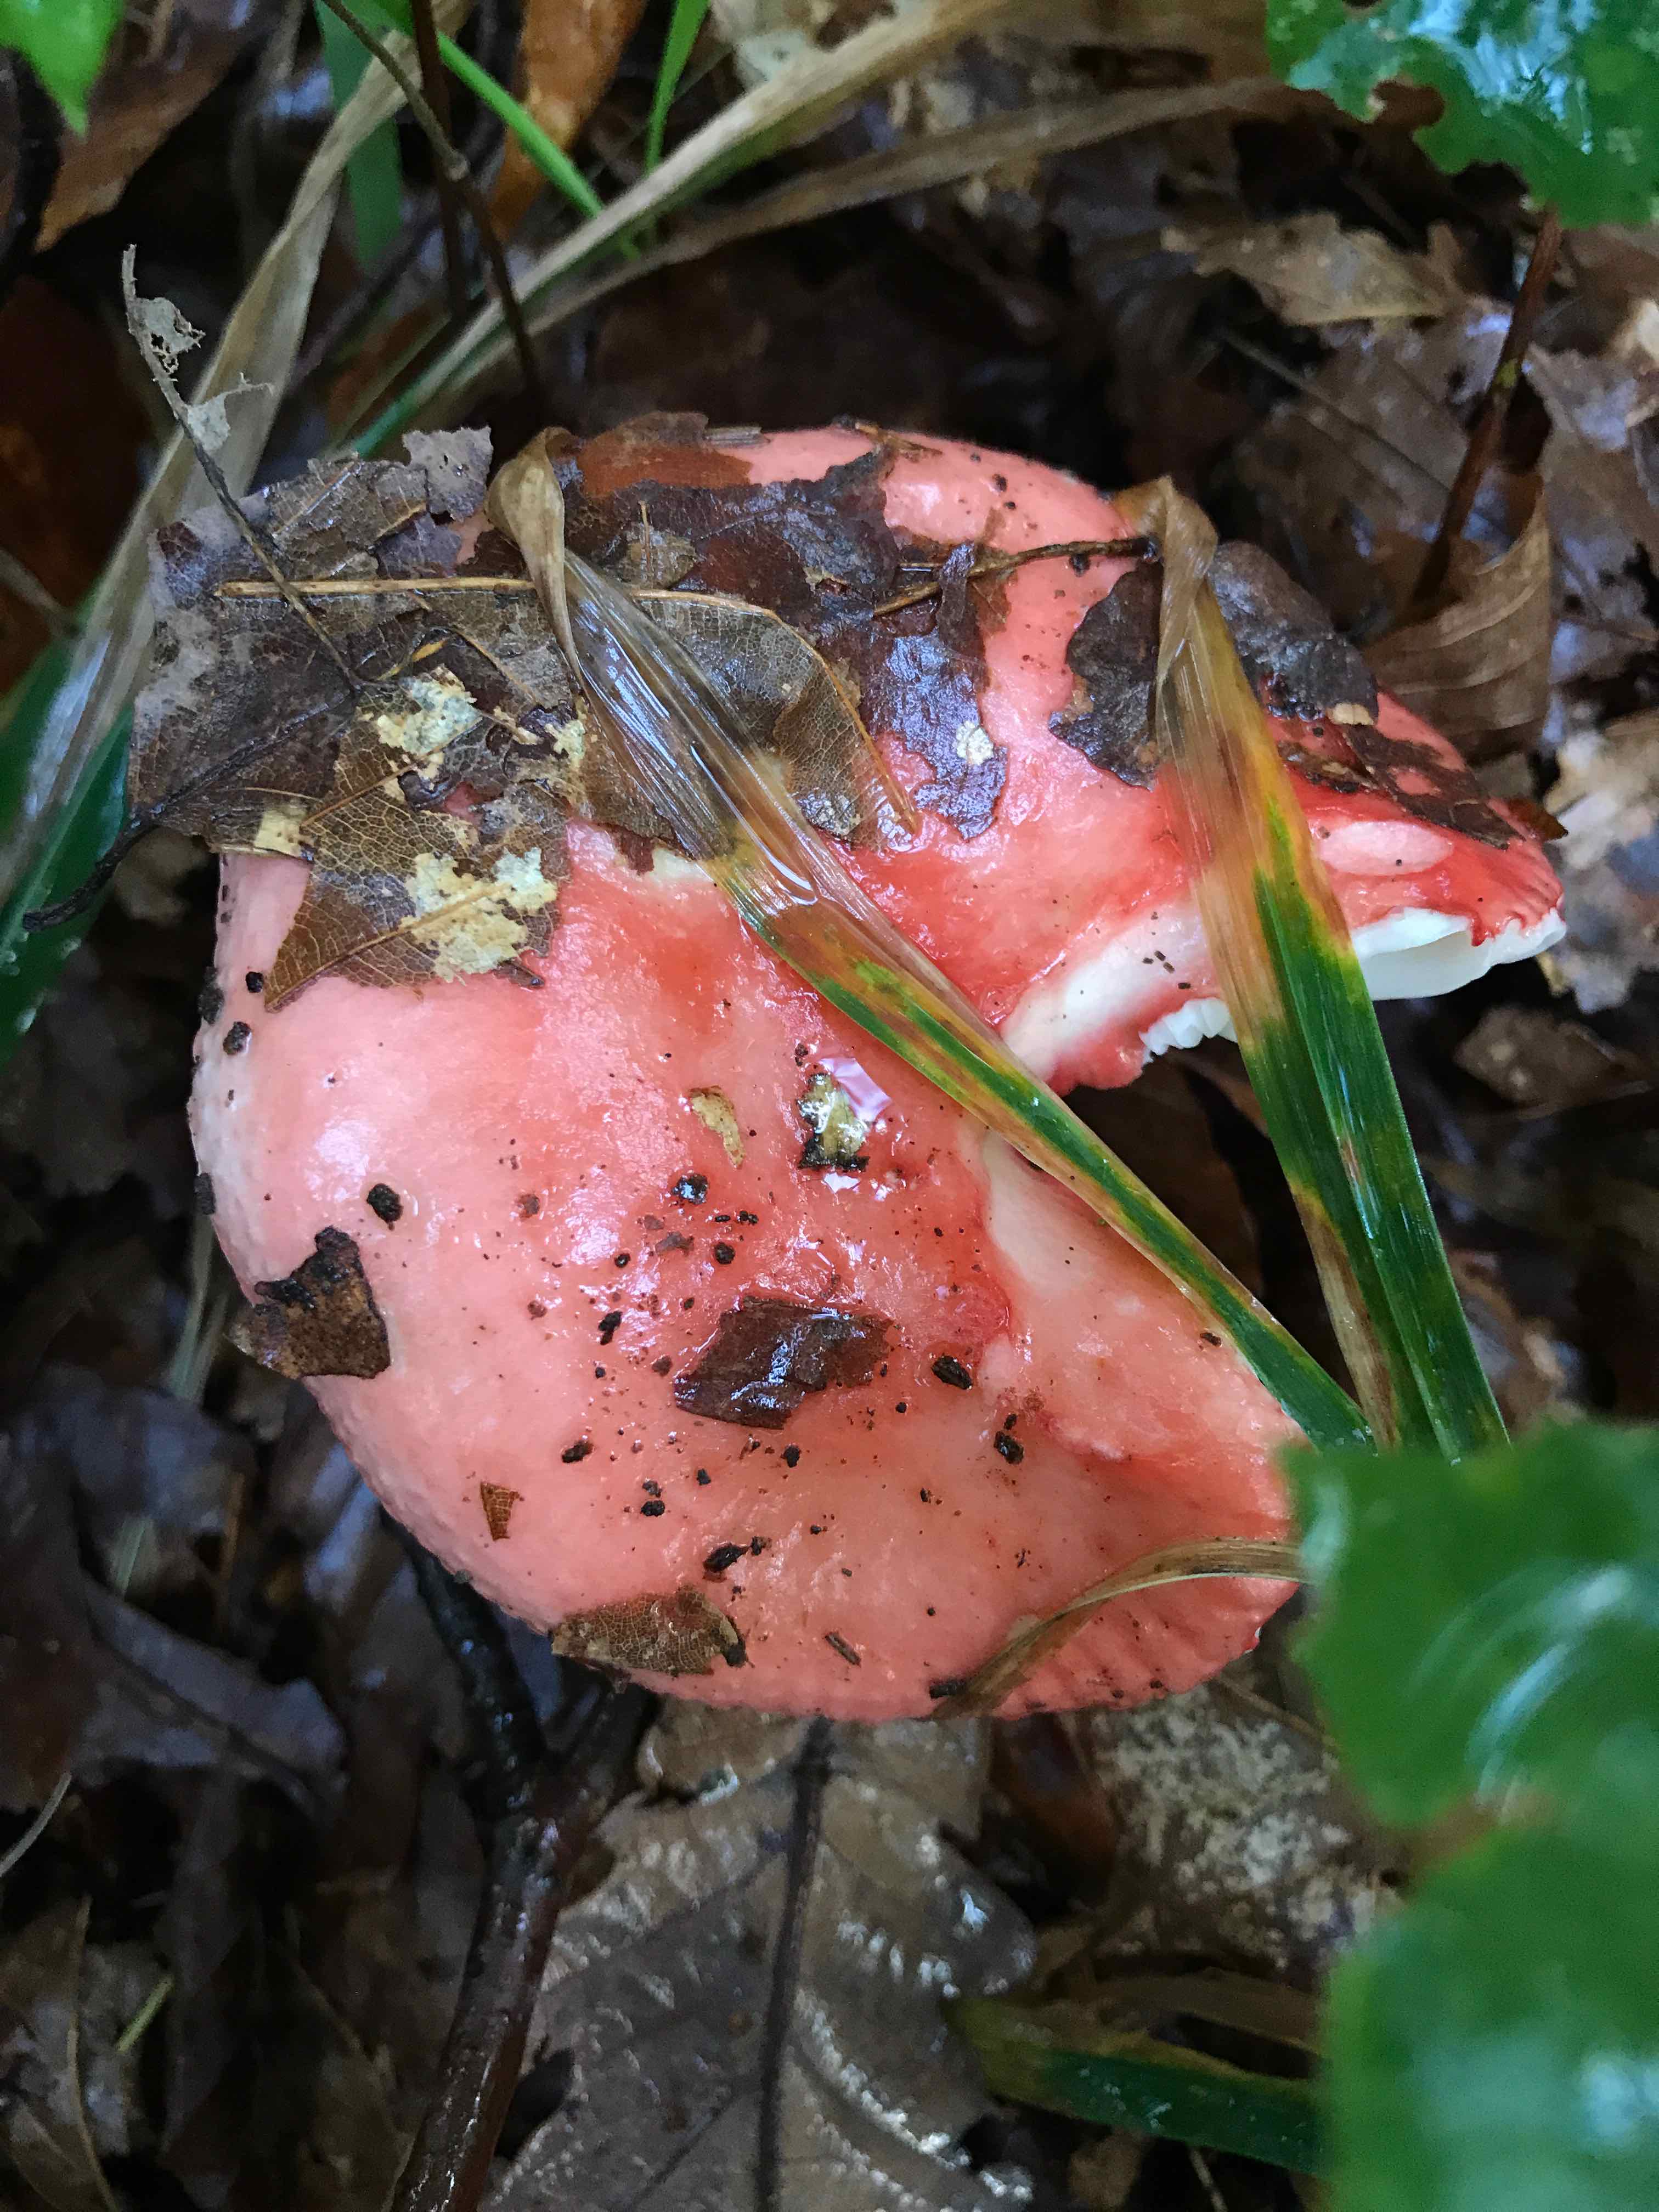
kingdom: Fungi
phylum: Basidiomycota
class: Agaricomycetes
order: Russulales
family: Russulaceae
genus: Russula
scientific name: Russula
